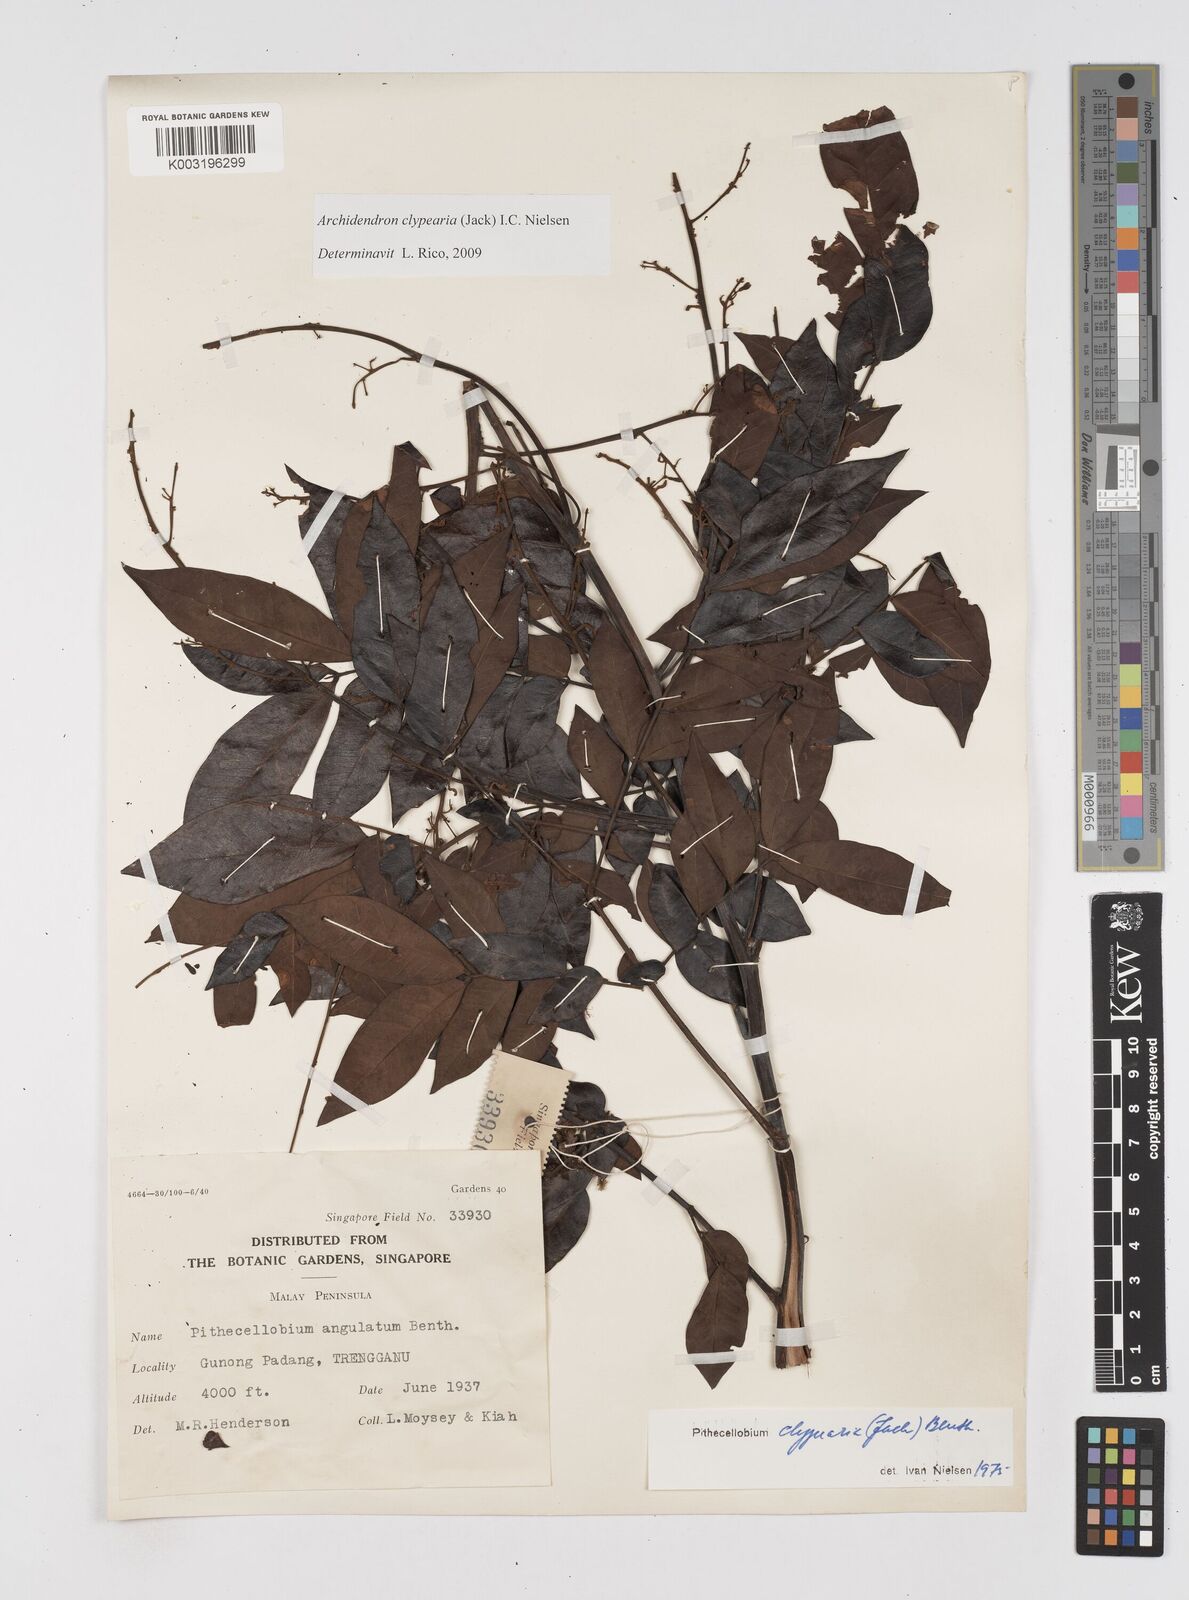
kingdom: Plantae
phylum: Tracheophyta
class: Magnoliopsida
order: Fabales
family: Fabaceae
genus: Archidendron
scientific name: Archidendron clypearia
